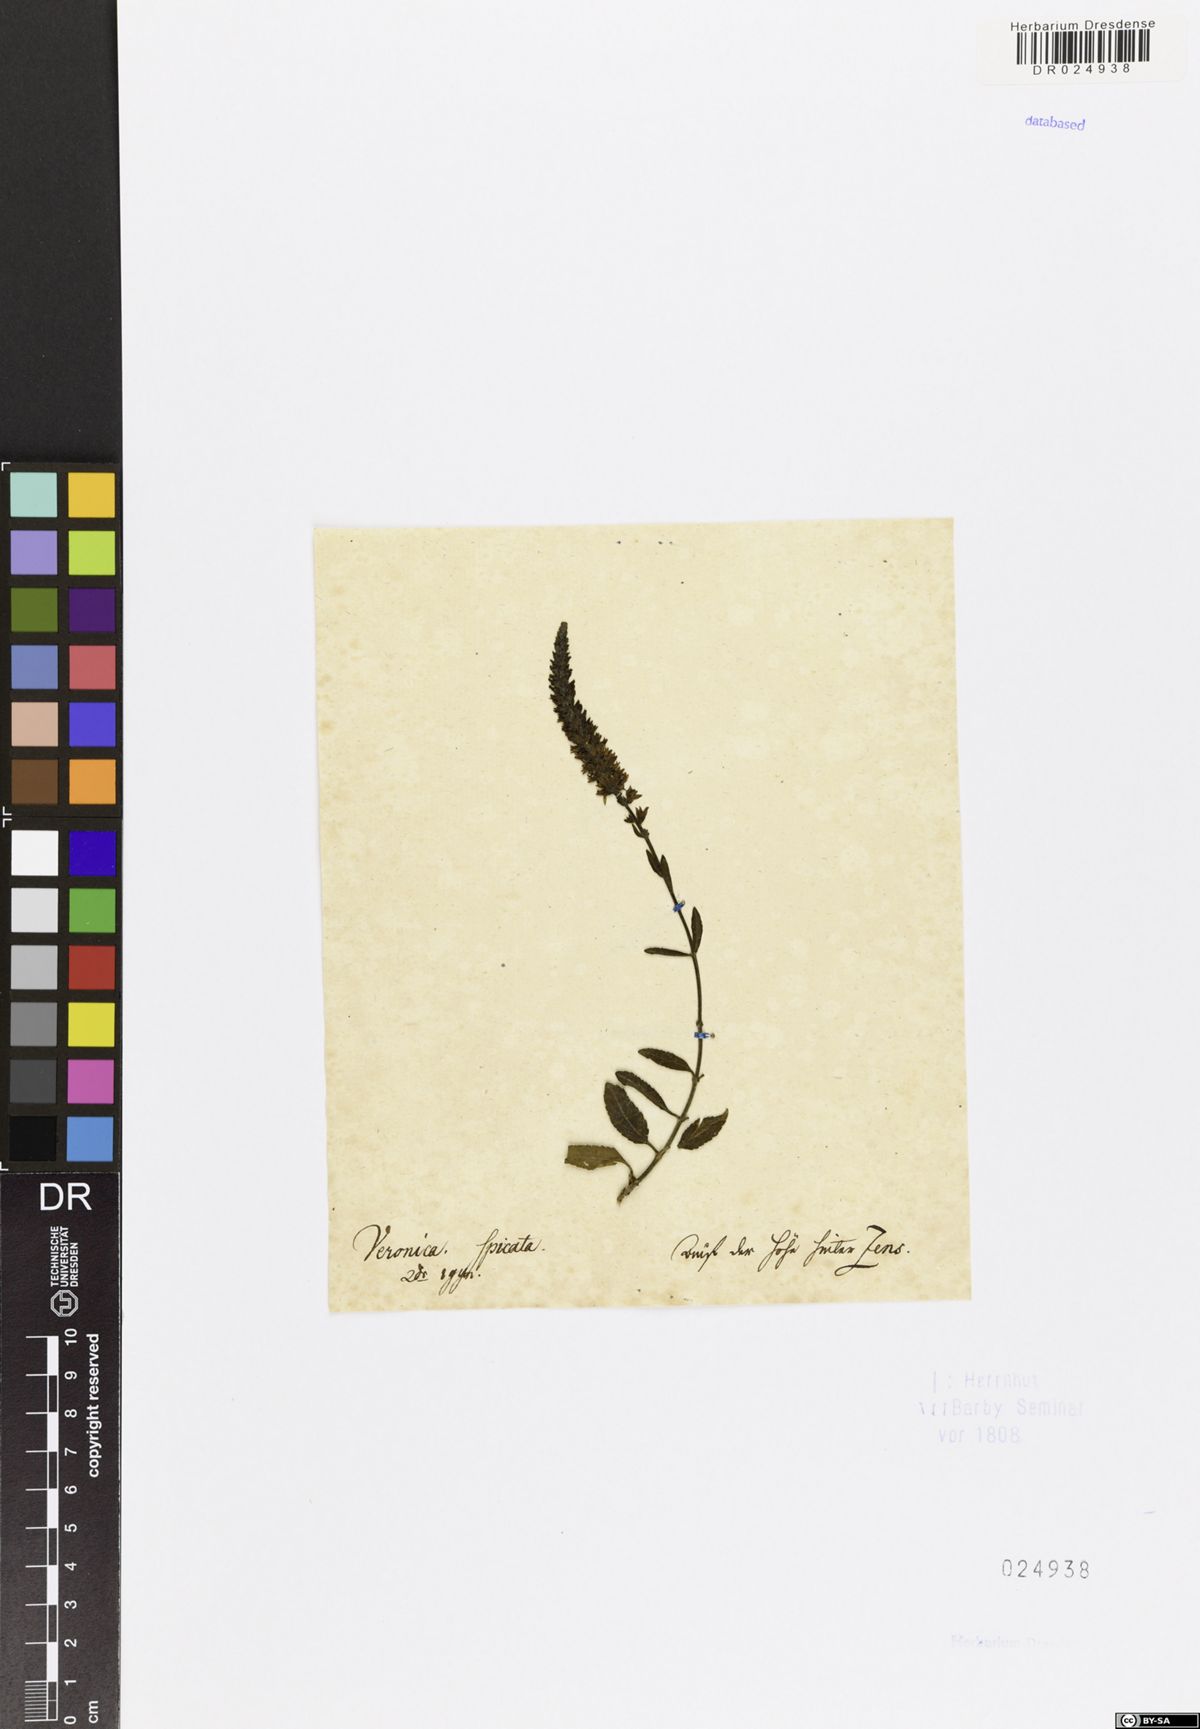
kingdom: Plantae
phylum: Tracheophyta
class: Magnoliopsida
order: Lamiales
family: Plantaginaceae
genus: Veronica
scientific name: Veronica spicata
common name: Spiked speedwell
